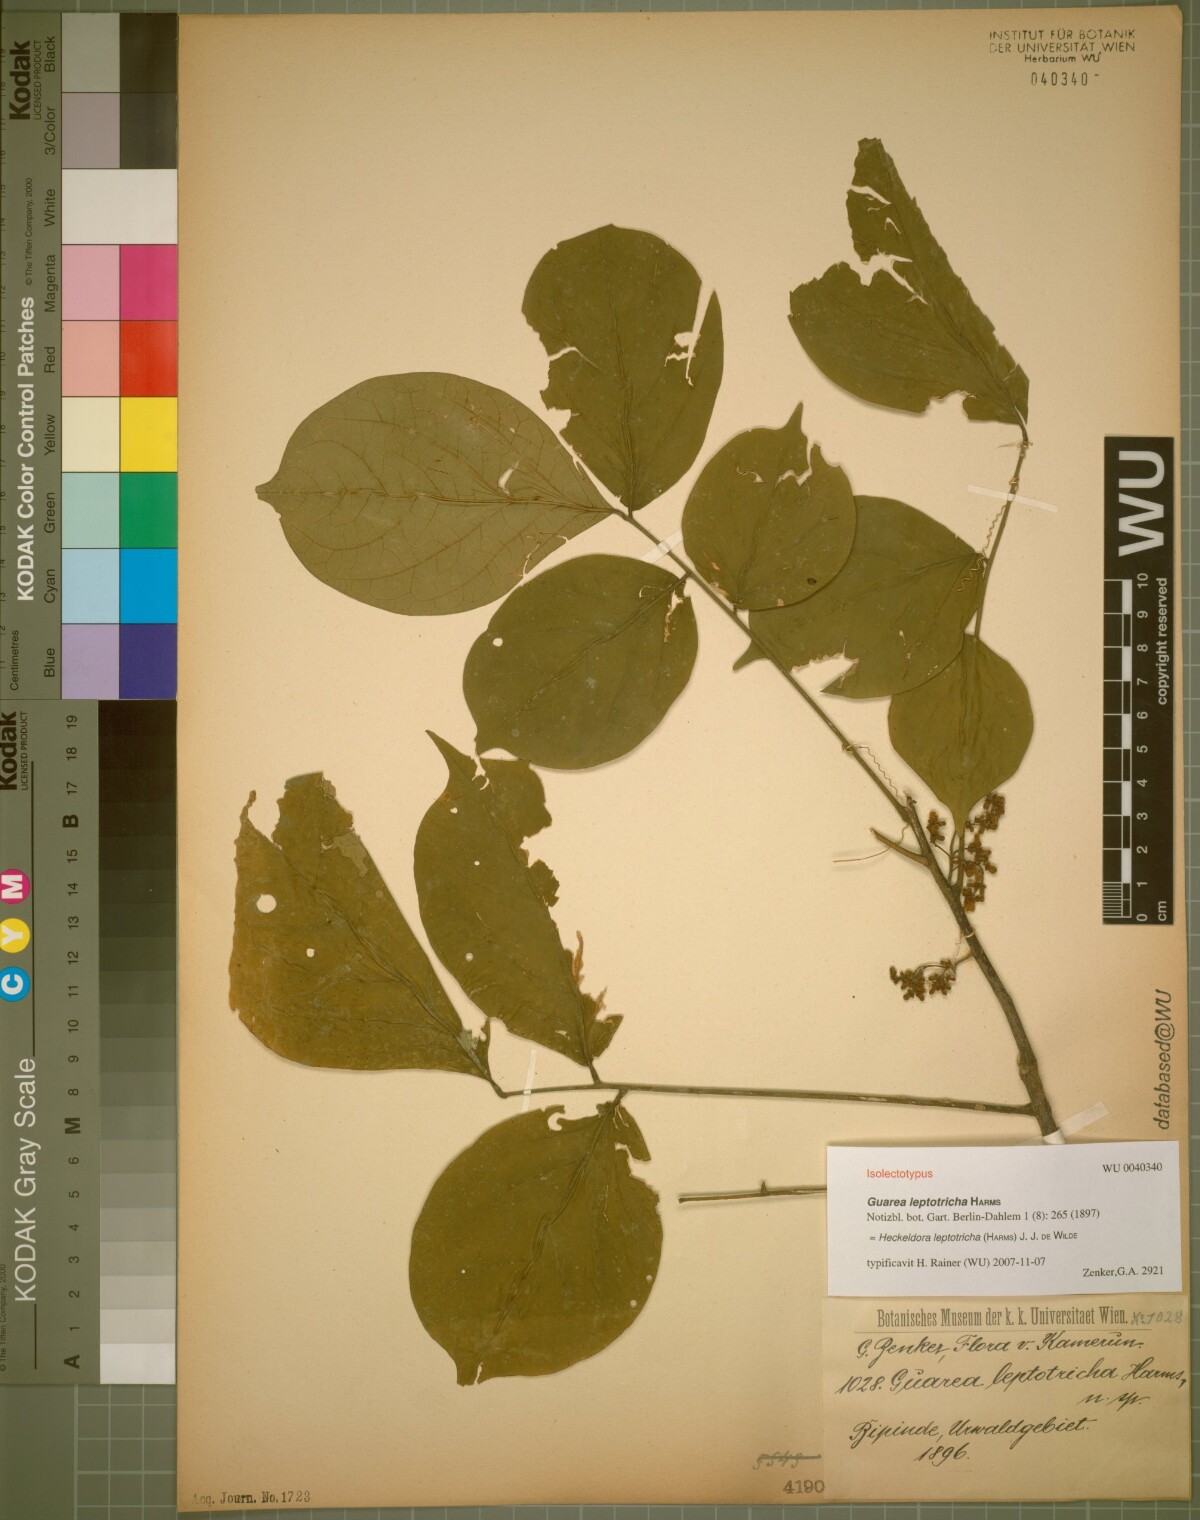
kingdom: Plantae
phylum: Tracheophyta
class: Magnoliopsida
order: Sapindales
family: Meliaceae
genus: Heckeldora
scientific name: Heckeldora leptotricha
